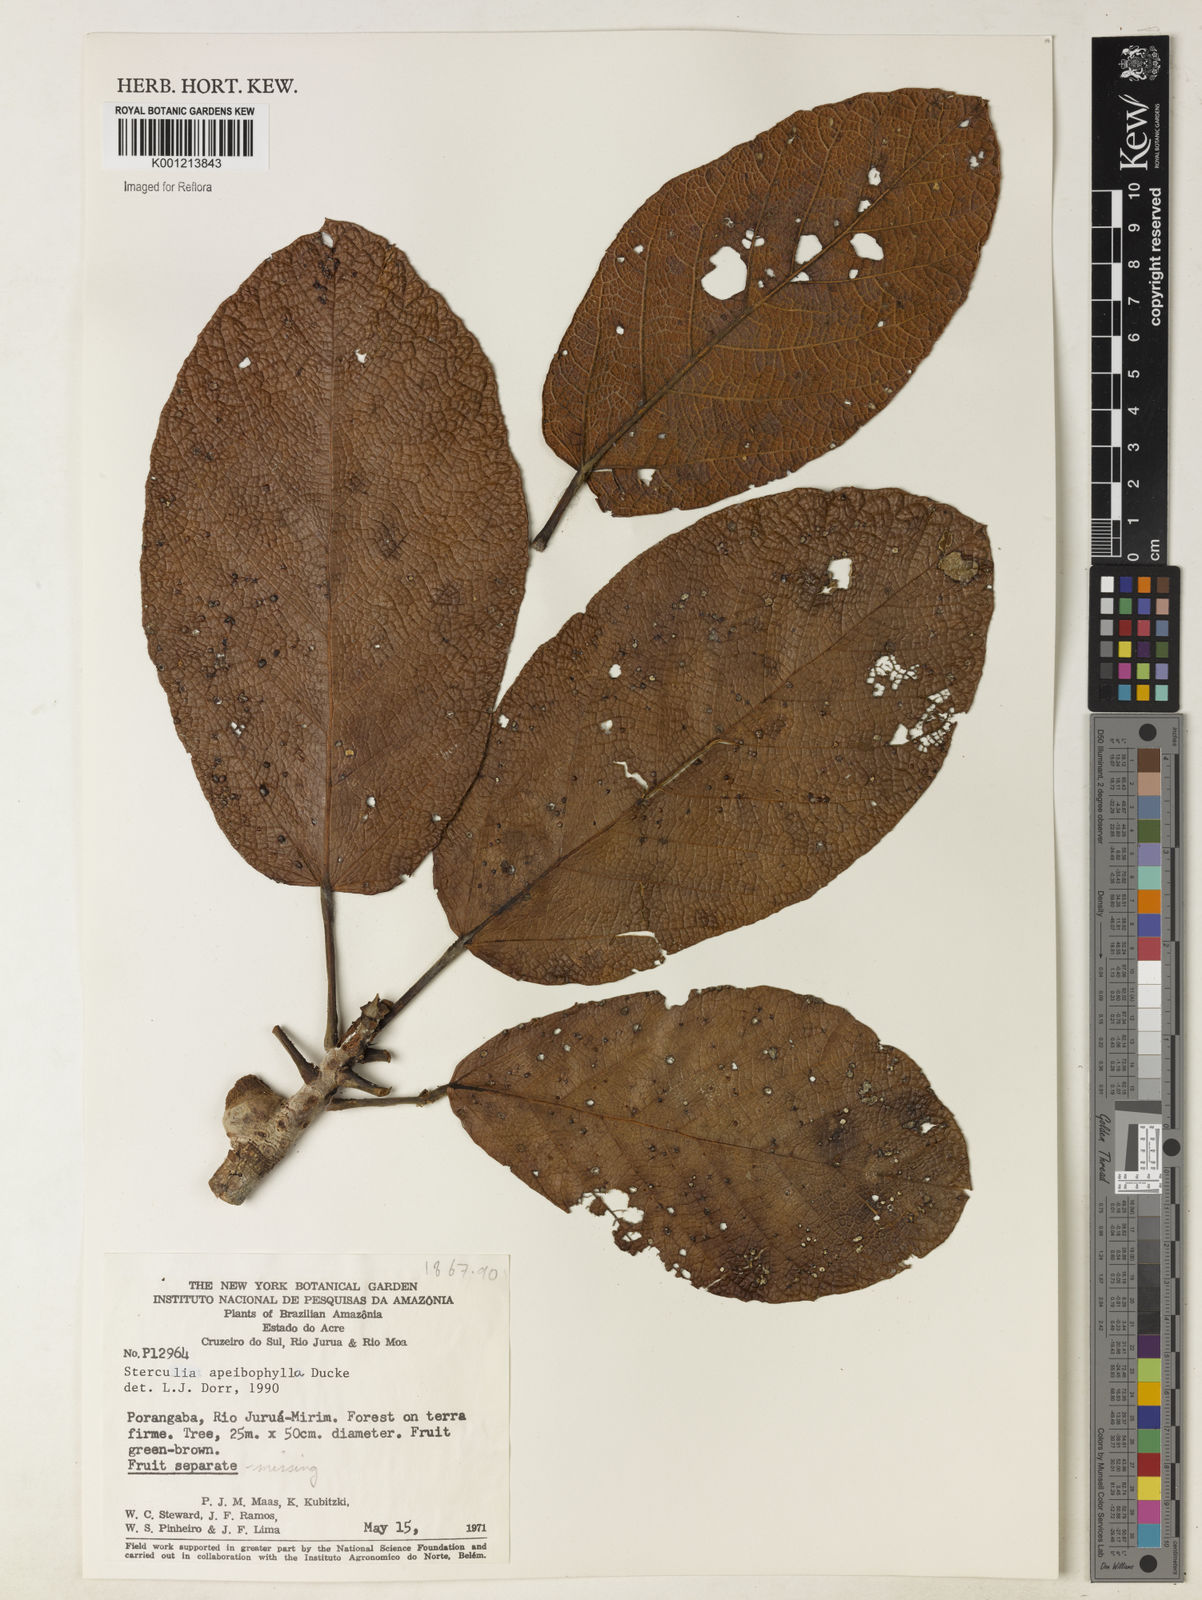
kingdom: Plantae
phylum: Tracheophyta
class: Magnoliopsida
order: Malvales
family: Malvaceae
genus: Sterculia
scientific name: Sterculia apeibophylla
